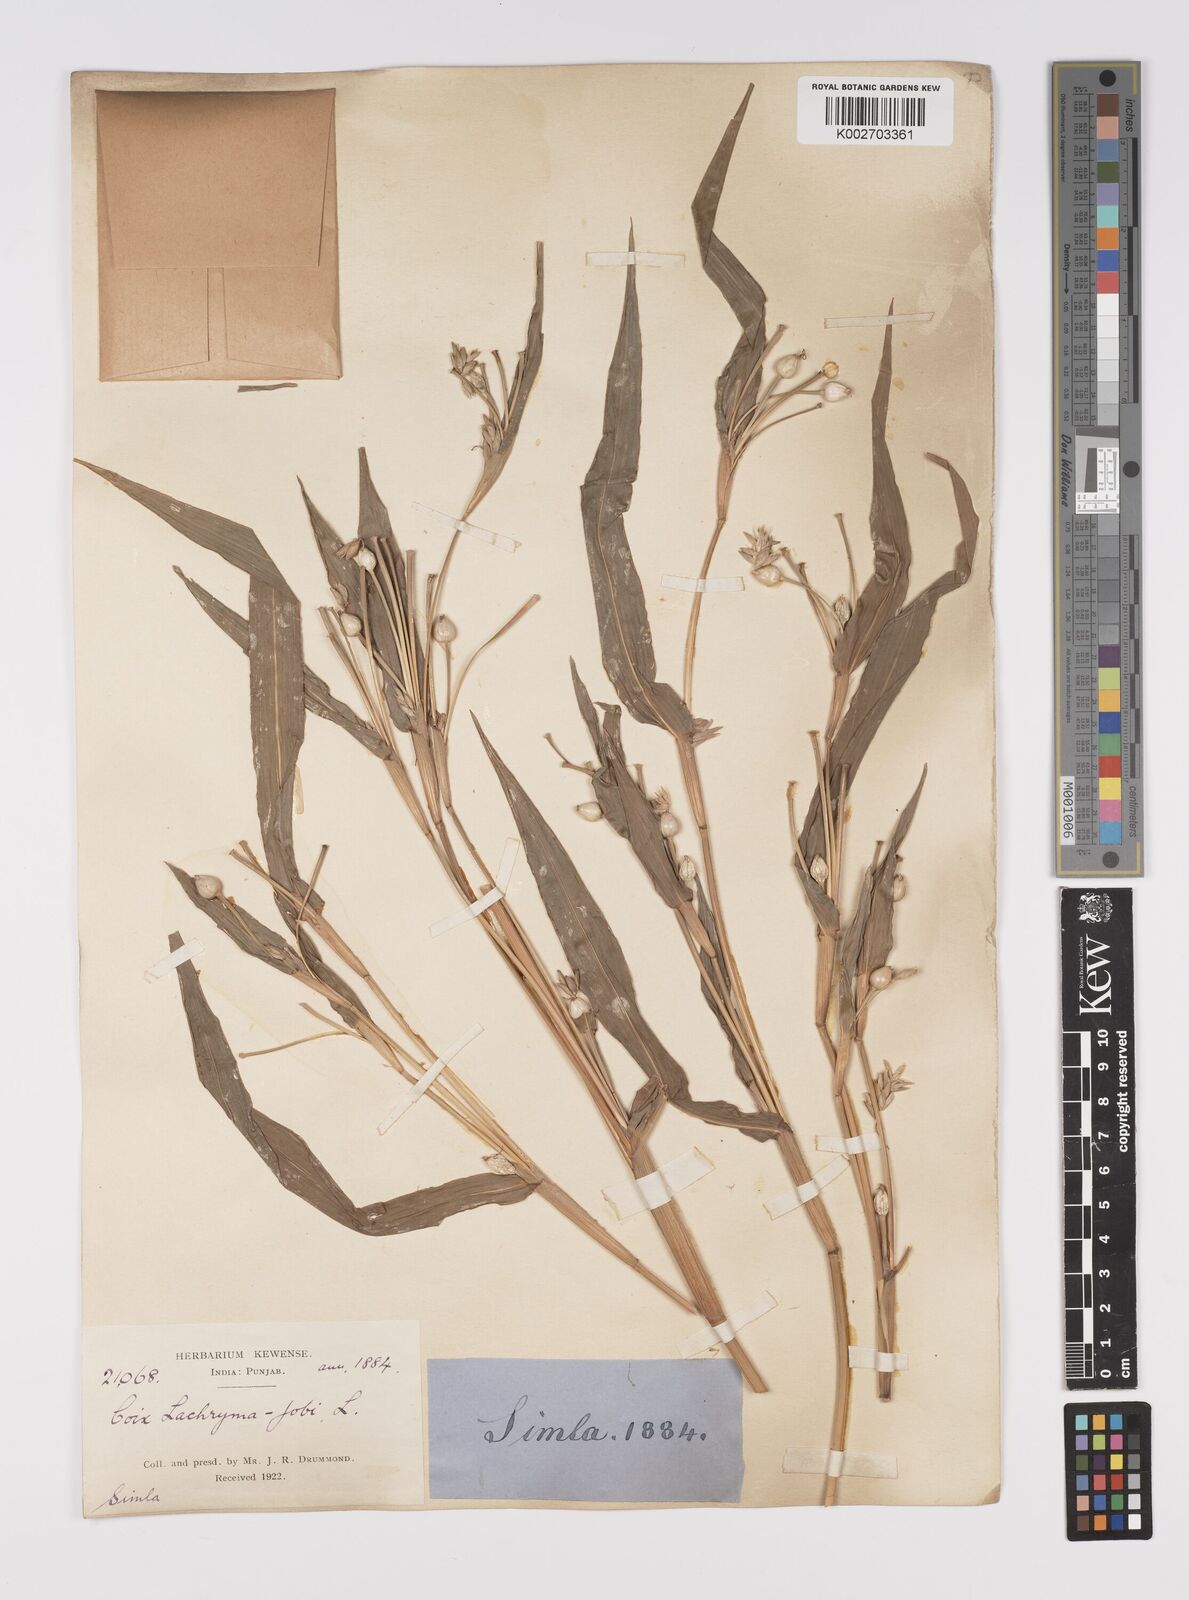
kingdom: Plantae
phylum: Tracheophyta
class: Liliopsida
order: Poales
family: Poaceae
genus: Coix
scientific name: Coix lacryma-jobi
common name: Job's tears
